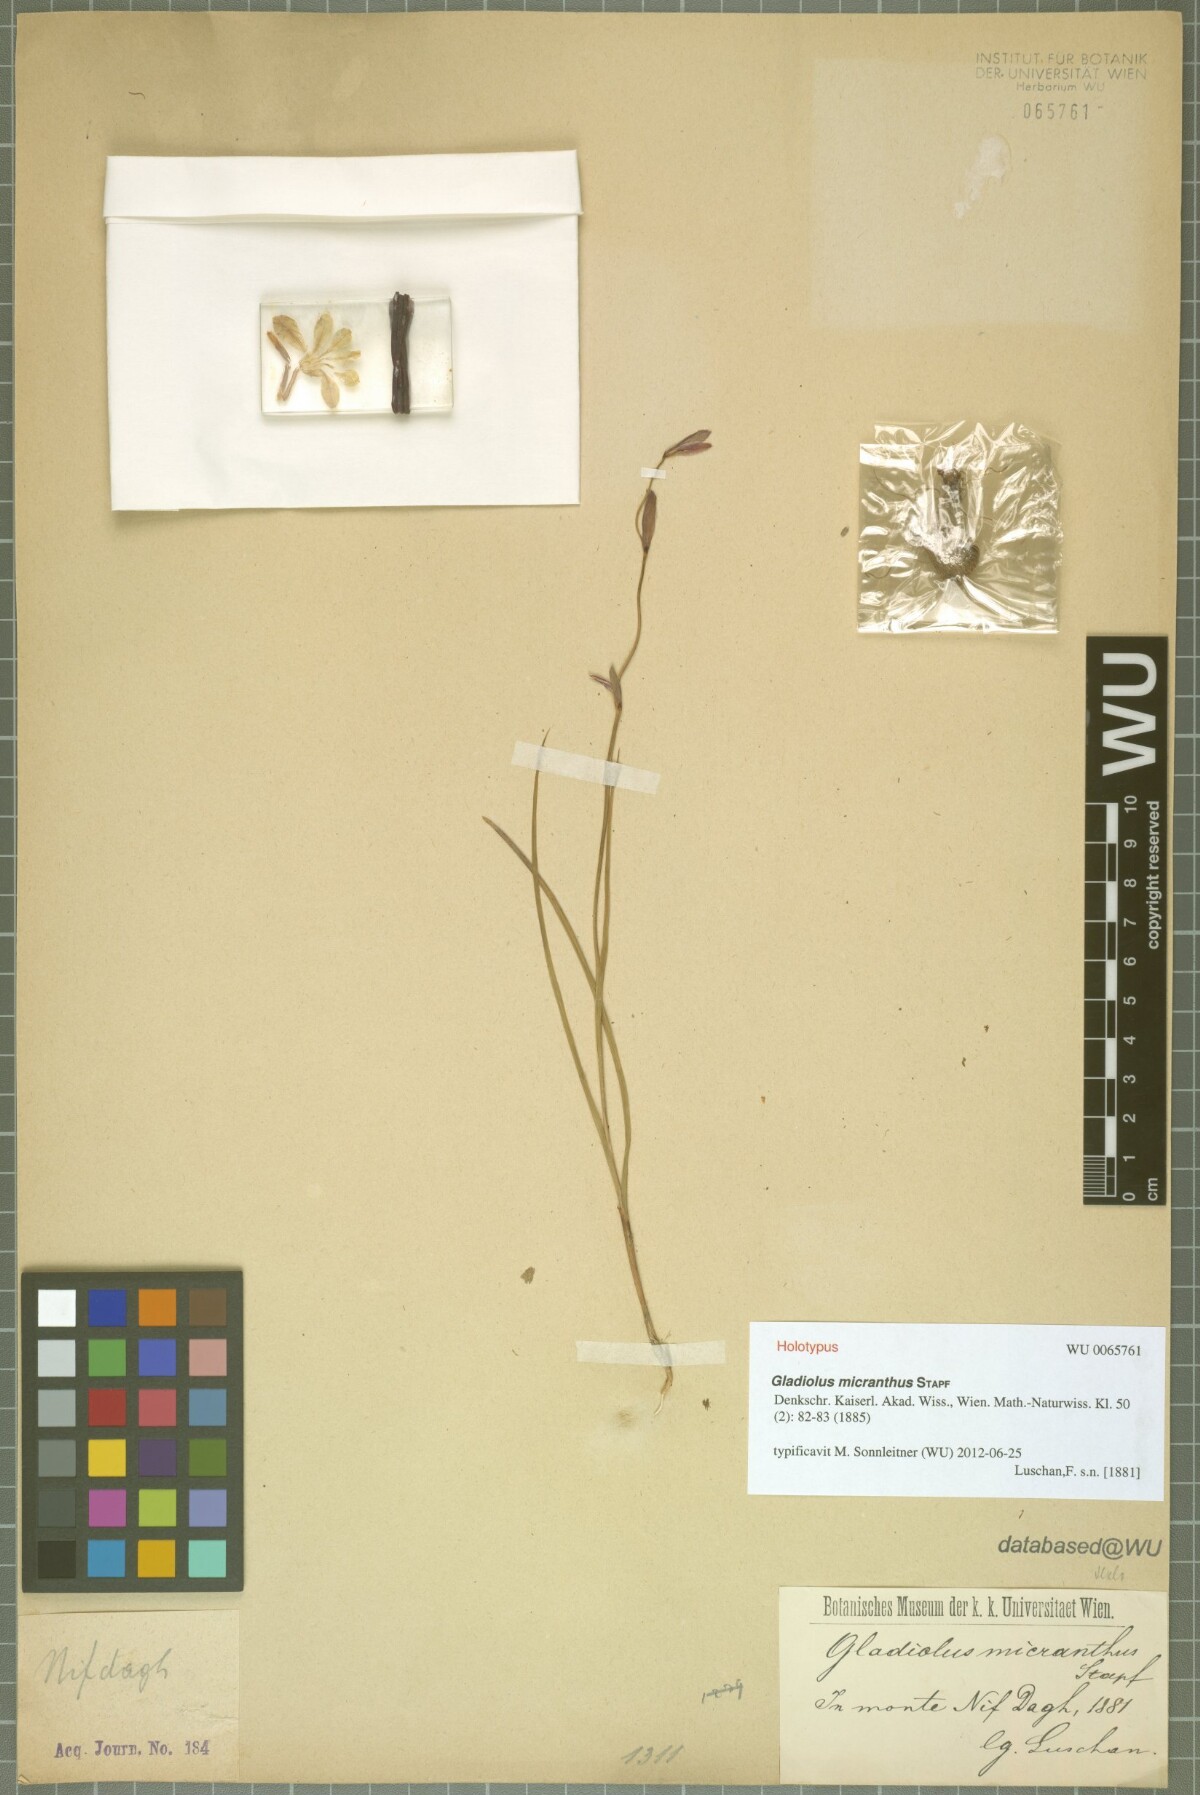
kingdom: Plantae
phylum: Tracheophyta
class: Liliopsida
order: Asparagales
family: Iridaceae
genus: Gladiolus
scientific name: Gladiolus micranthus
